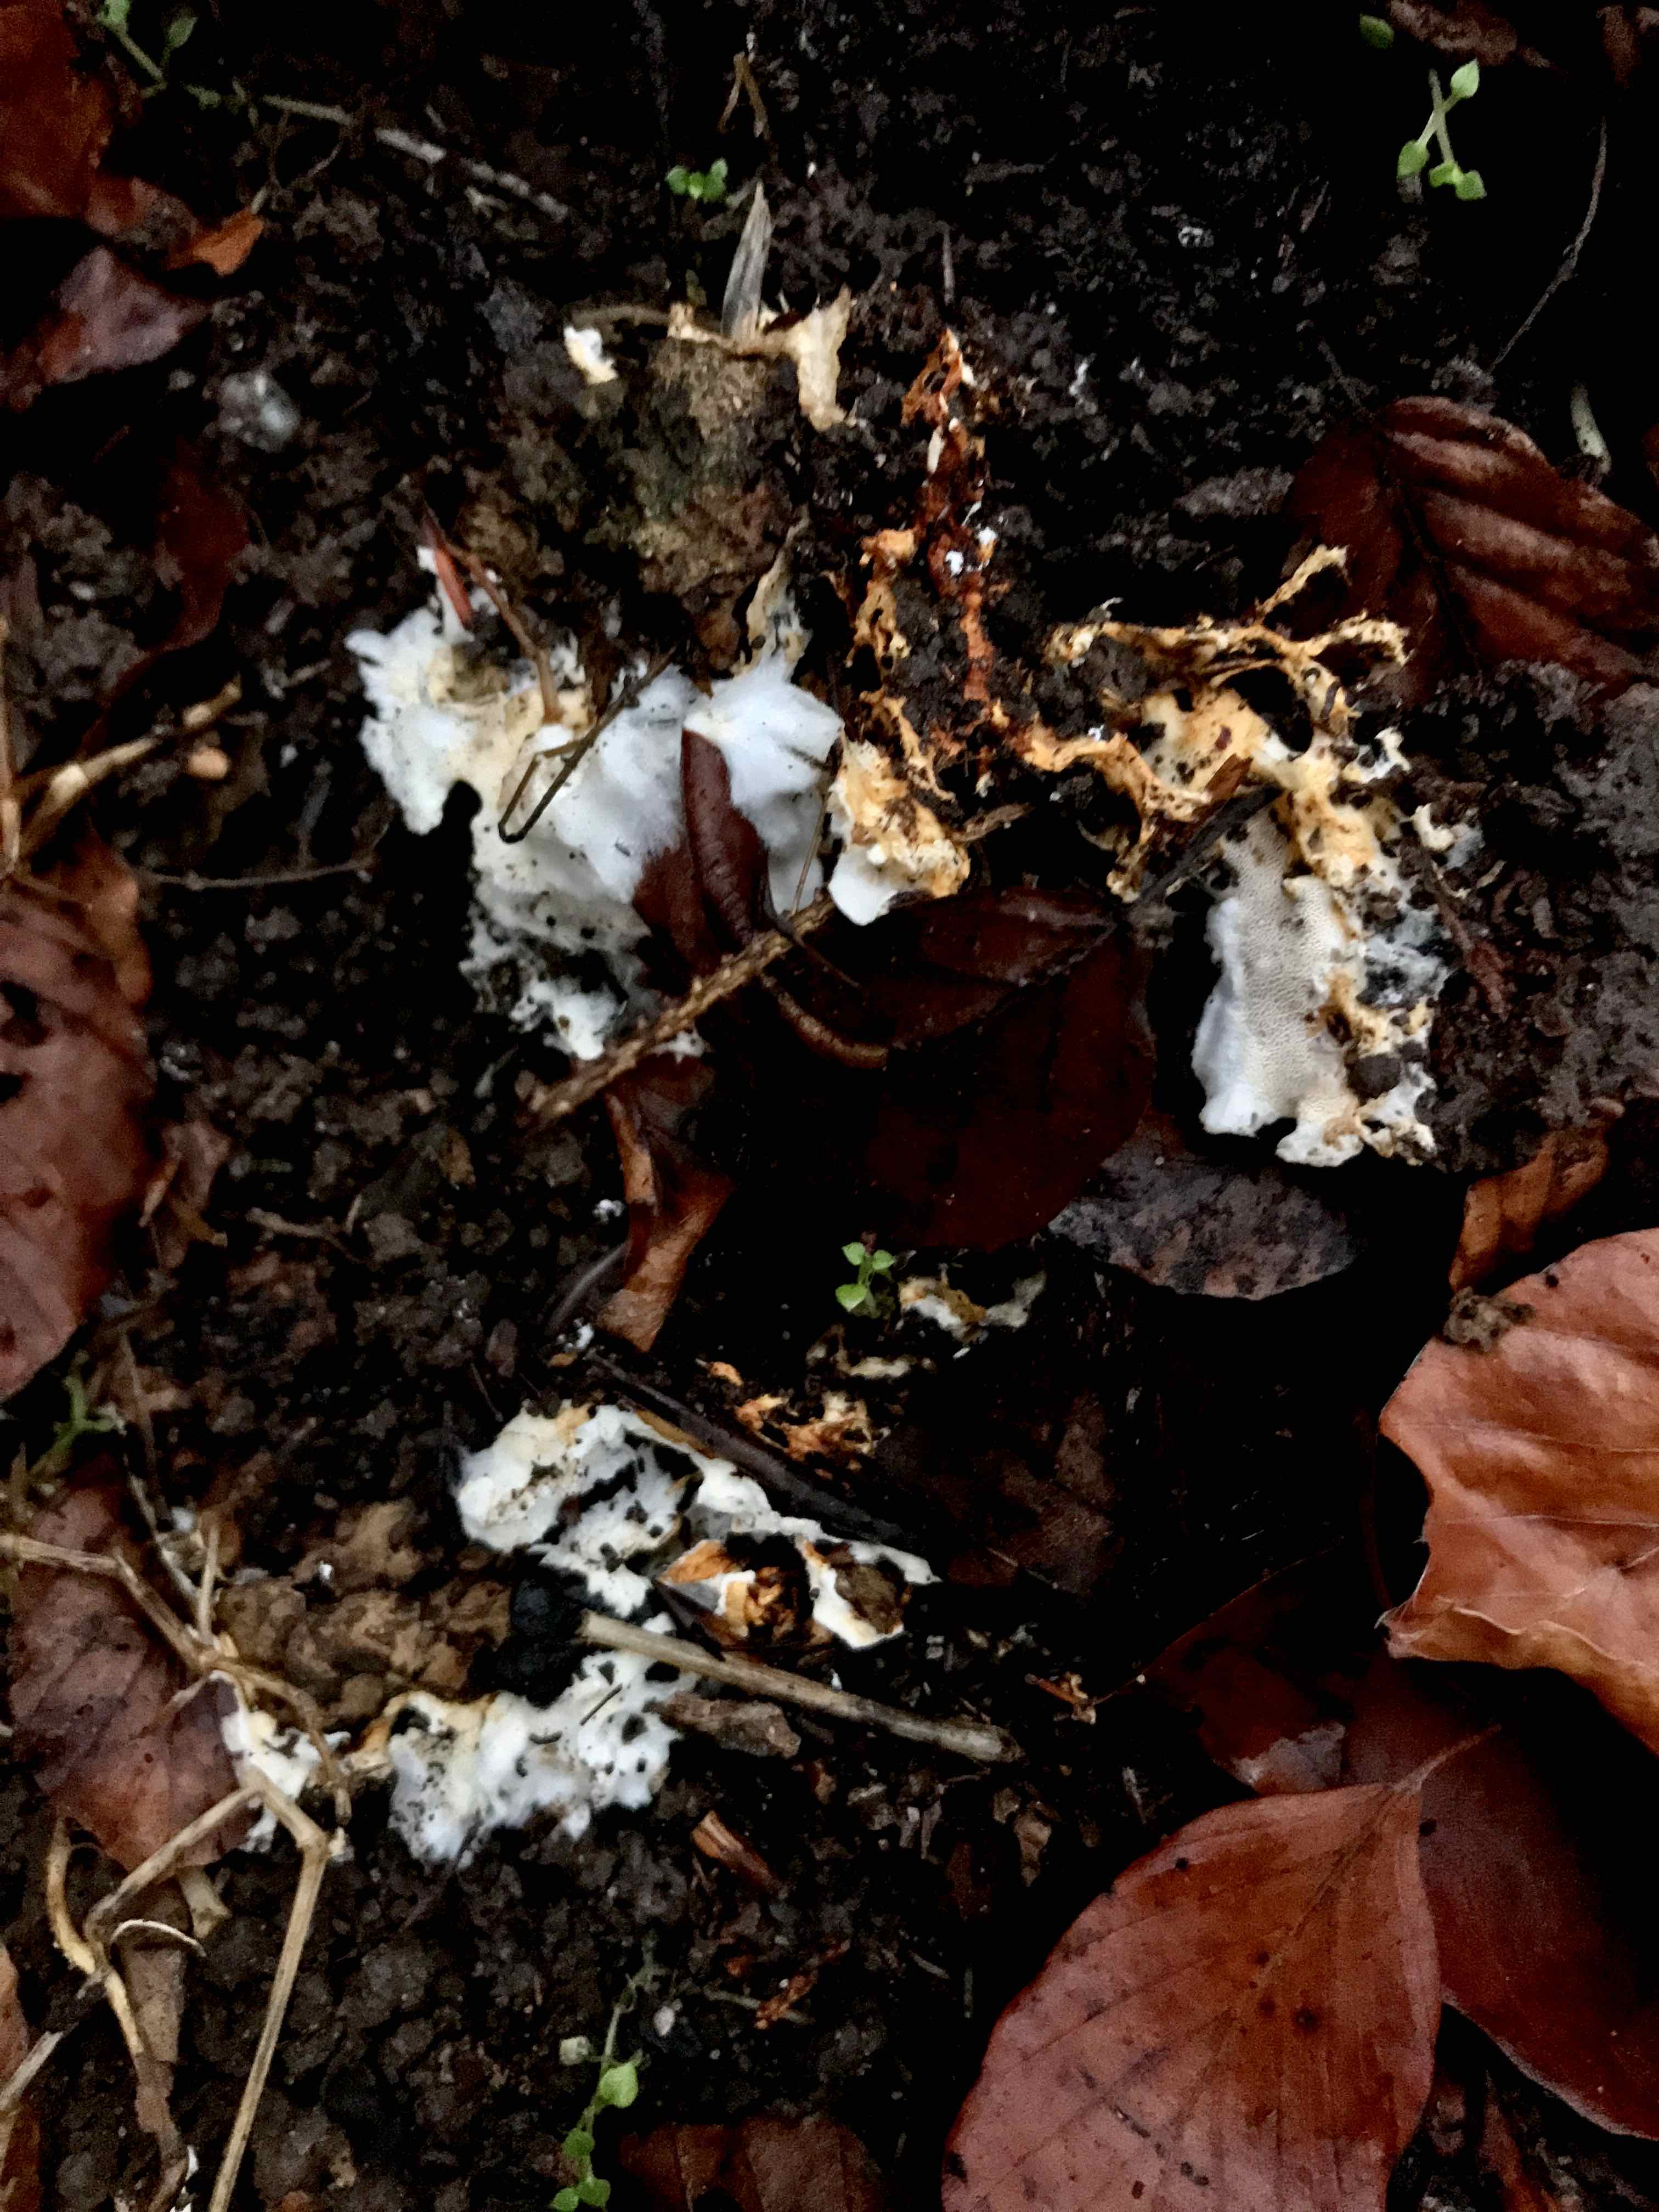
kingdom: Fungi
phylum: Basidiomycota
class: Agaricomycetes
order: Polyporales
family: Steccherinaceae
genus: Loweomyces
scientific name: Loweomyces wynneae
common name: krybende blødporesvamp
